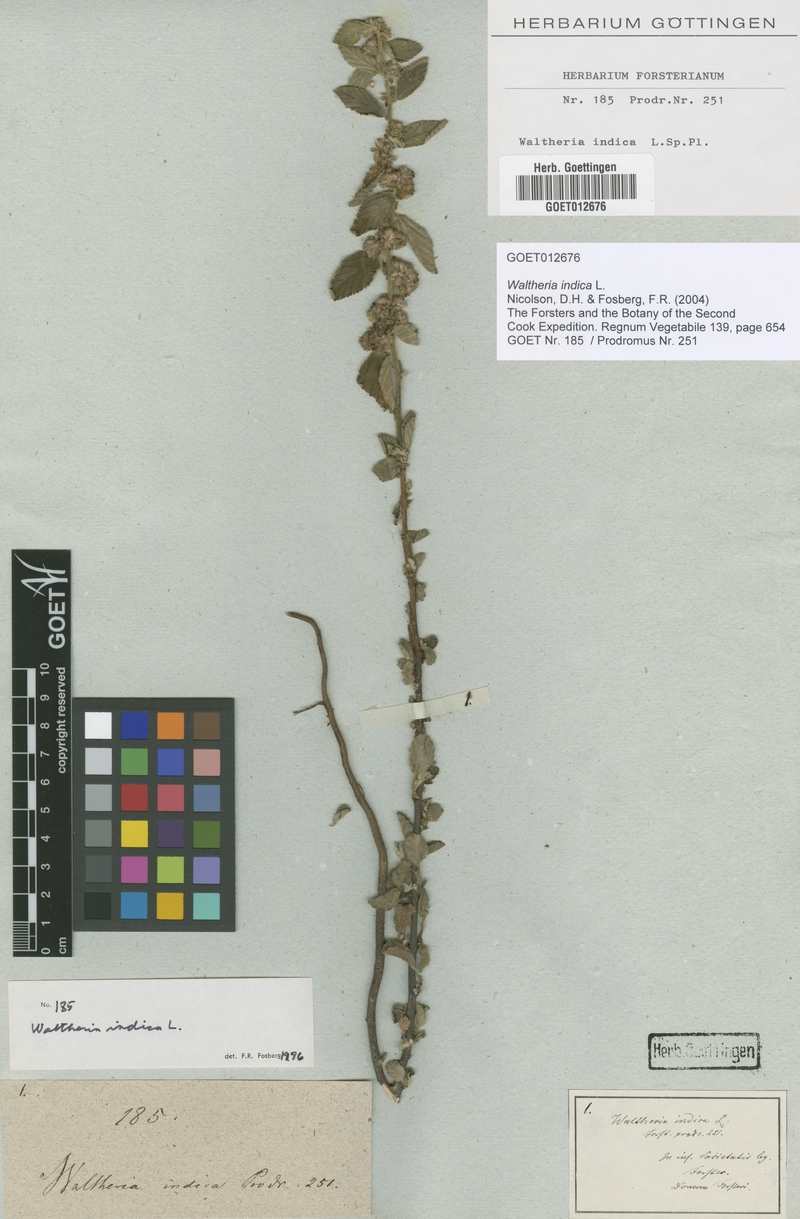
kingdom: Plantae
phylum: Tracheophyta
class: Magnoliopsida
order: Malvales
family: Malvaceae
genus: Waltheria
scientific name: Waltheria indica
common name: Leather-coat
